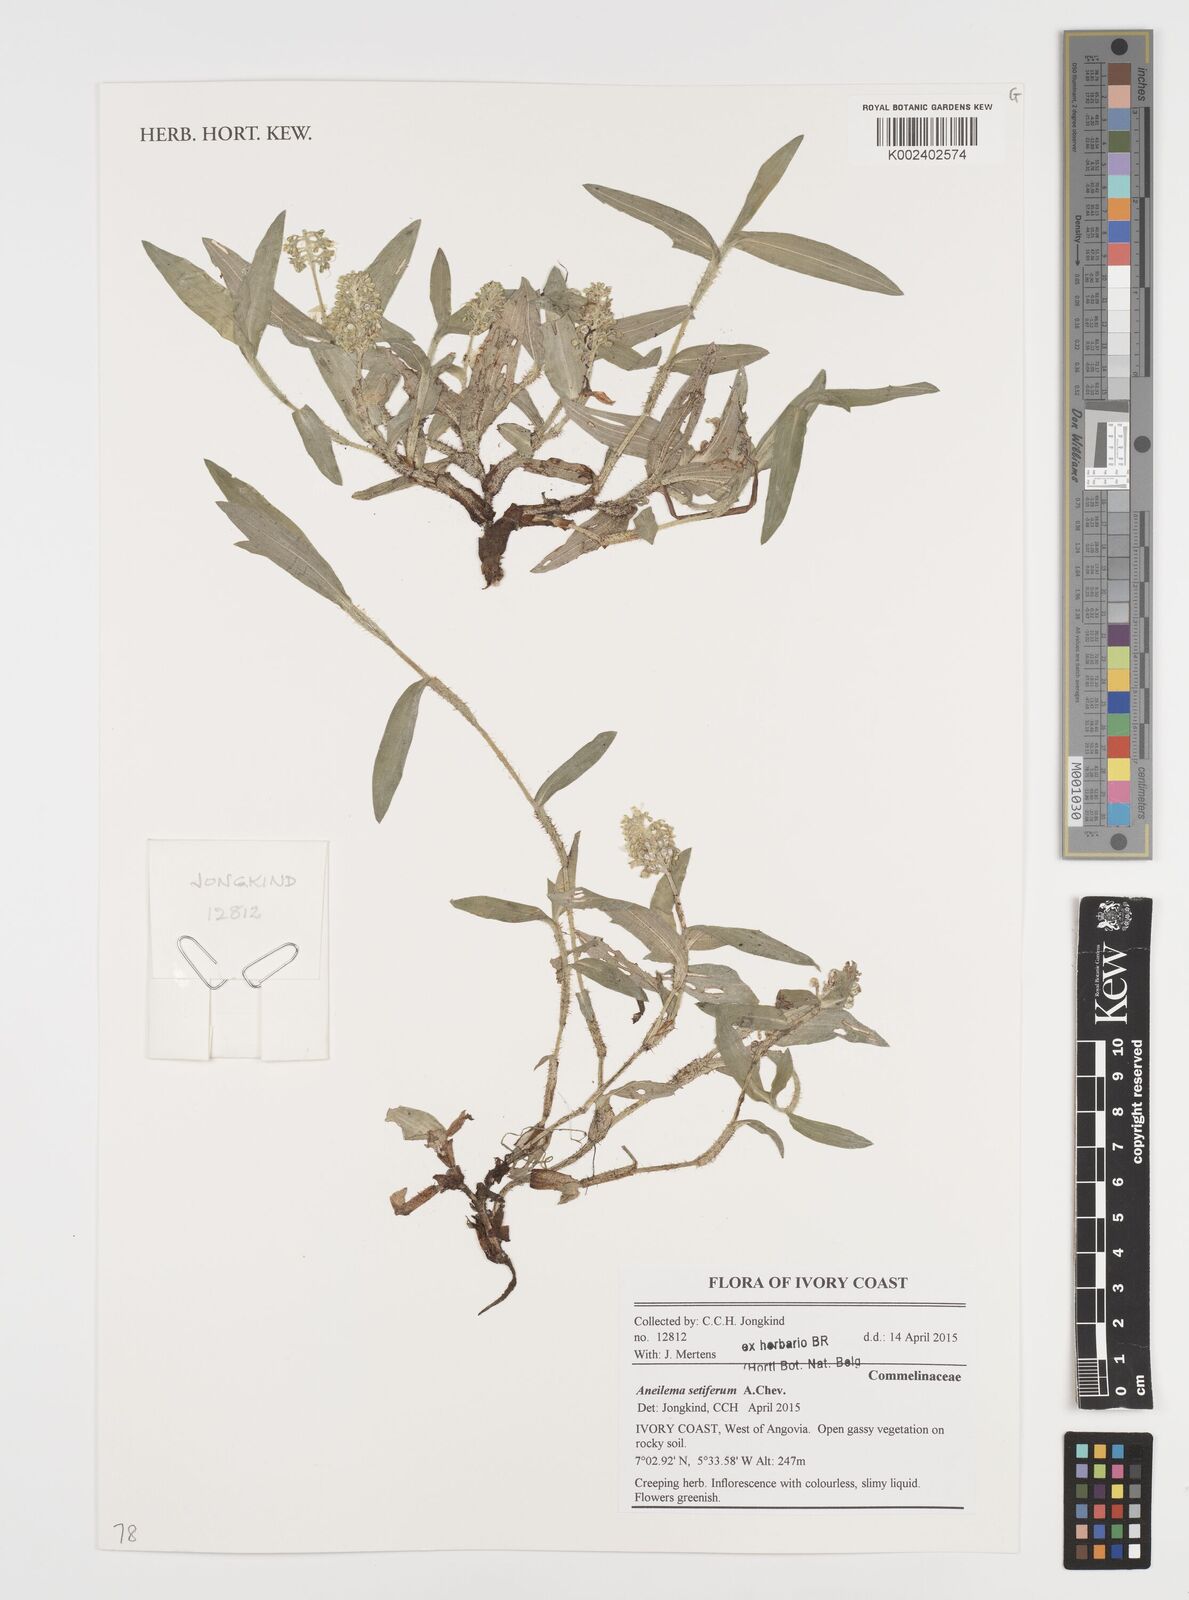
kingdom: Plantae
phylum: Tracheophyta
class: Liliopsida
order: Commelinales
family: Commelinaceae
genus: Aneilema
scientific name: Aneilema setiferum
